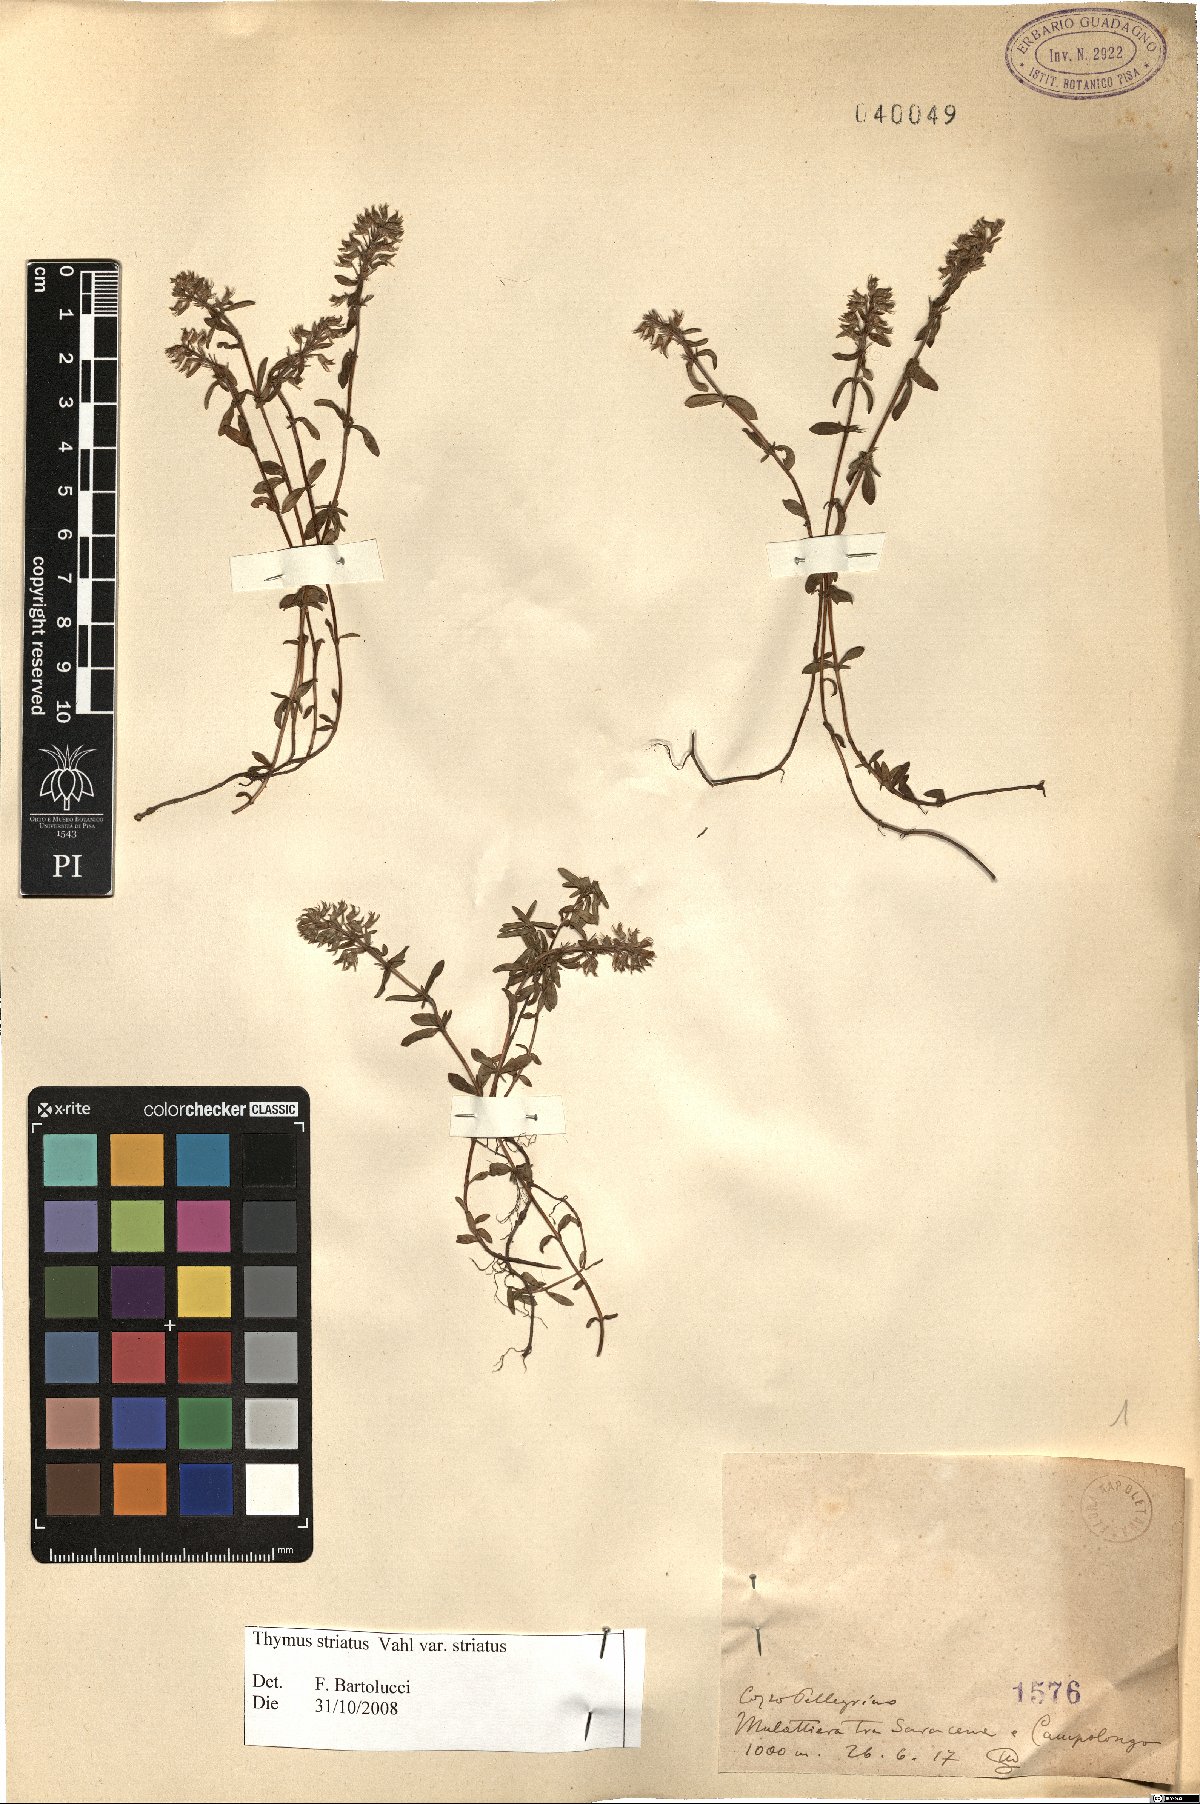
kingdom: Plantae
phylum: Tracheophyta
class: Magnoliopsida
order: Lamiales
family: Lamiaceae
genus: Thymus
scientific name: Thymus striatus
